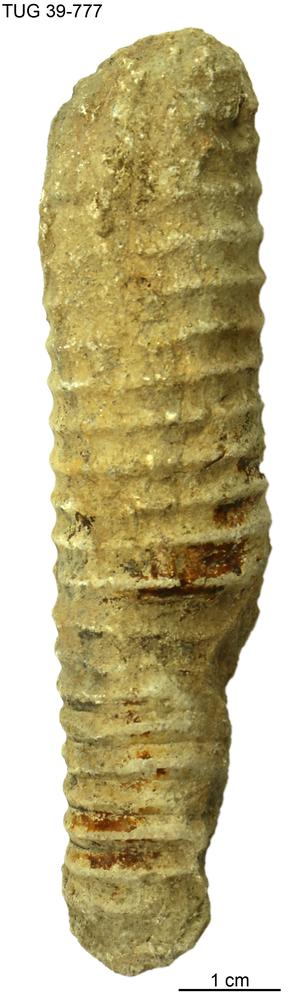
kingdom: Animalia
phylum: Mollusca
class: Cephalopoda
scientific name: Cephalopoda
